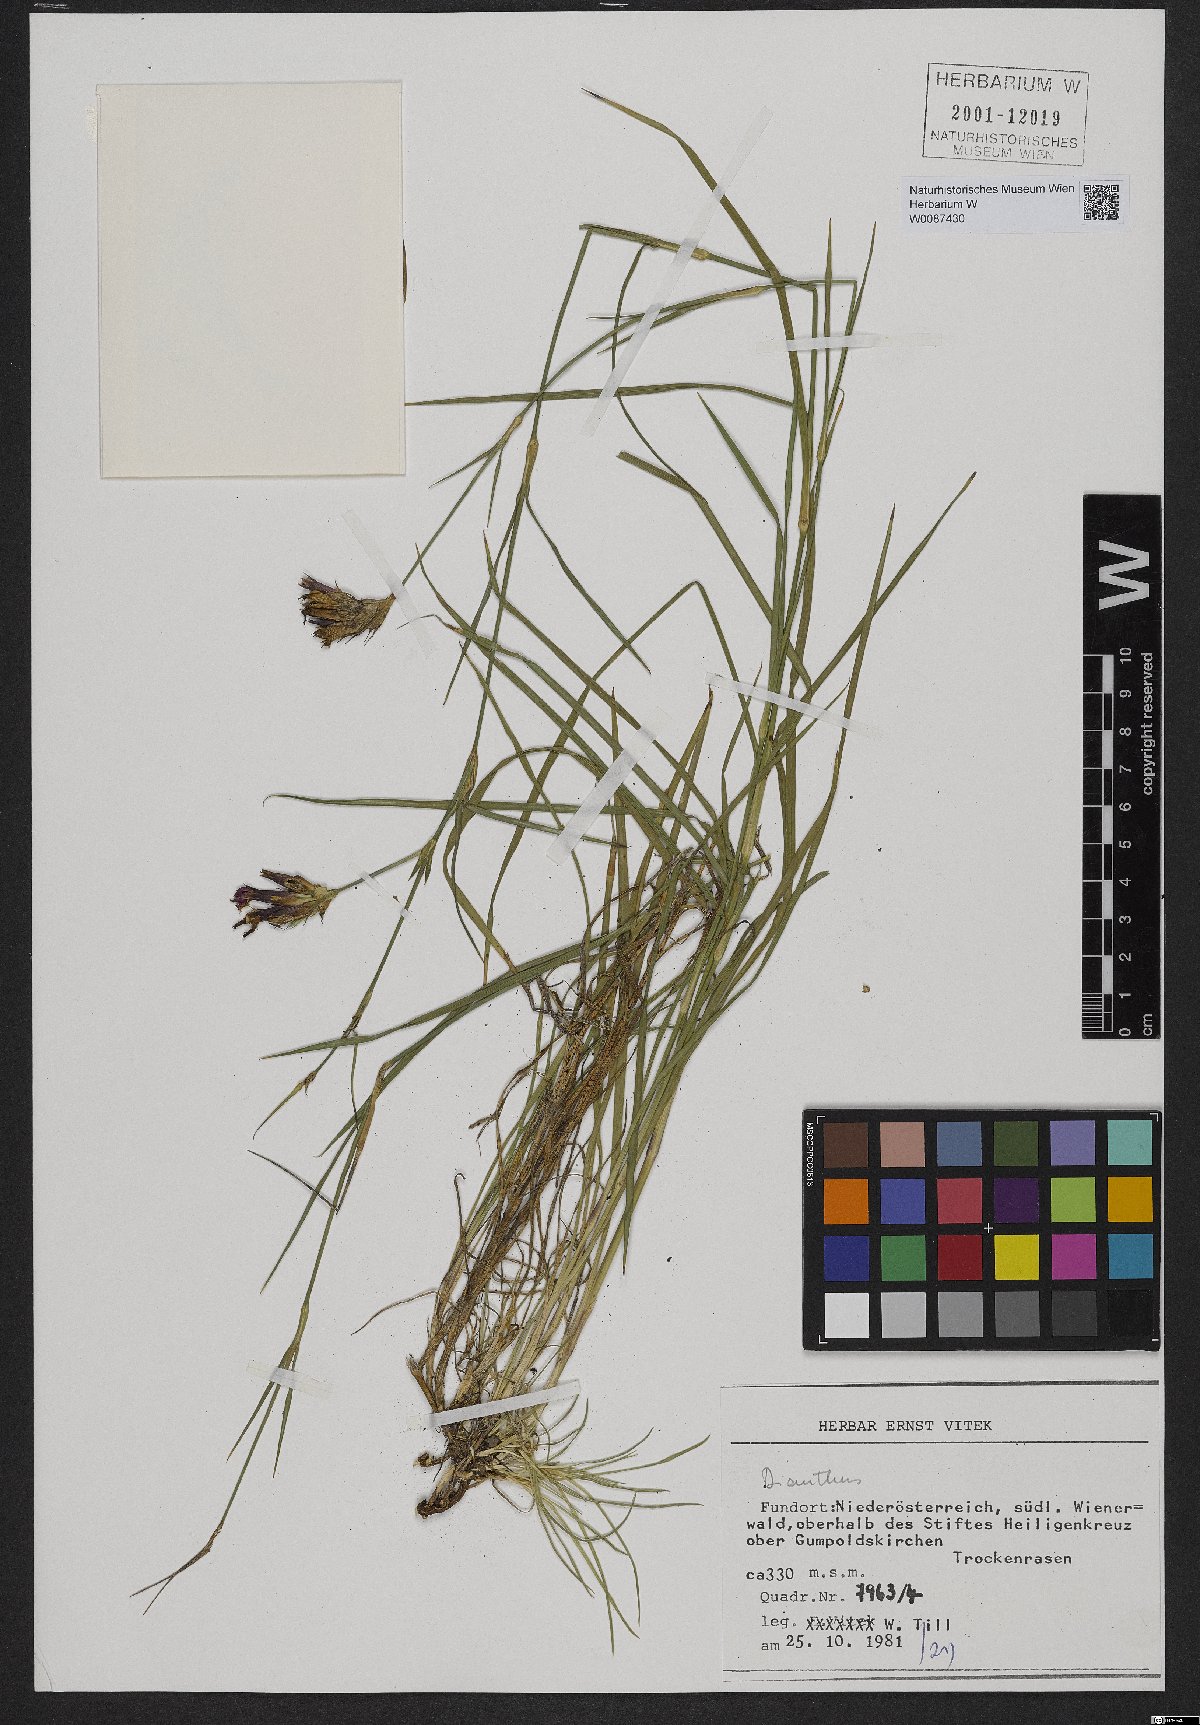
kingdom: Plantae
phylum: Tracheophyta
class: Magnoliopsida
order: Caryophyllales
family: Caryophyllaceae
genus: Dianthus
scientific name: Dianthus carthusianorum
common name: Carthusian pink
